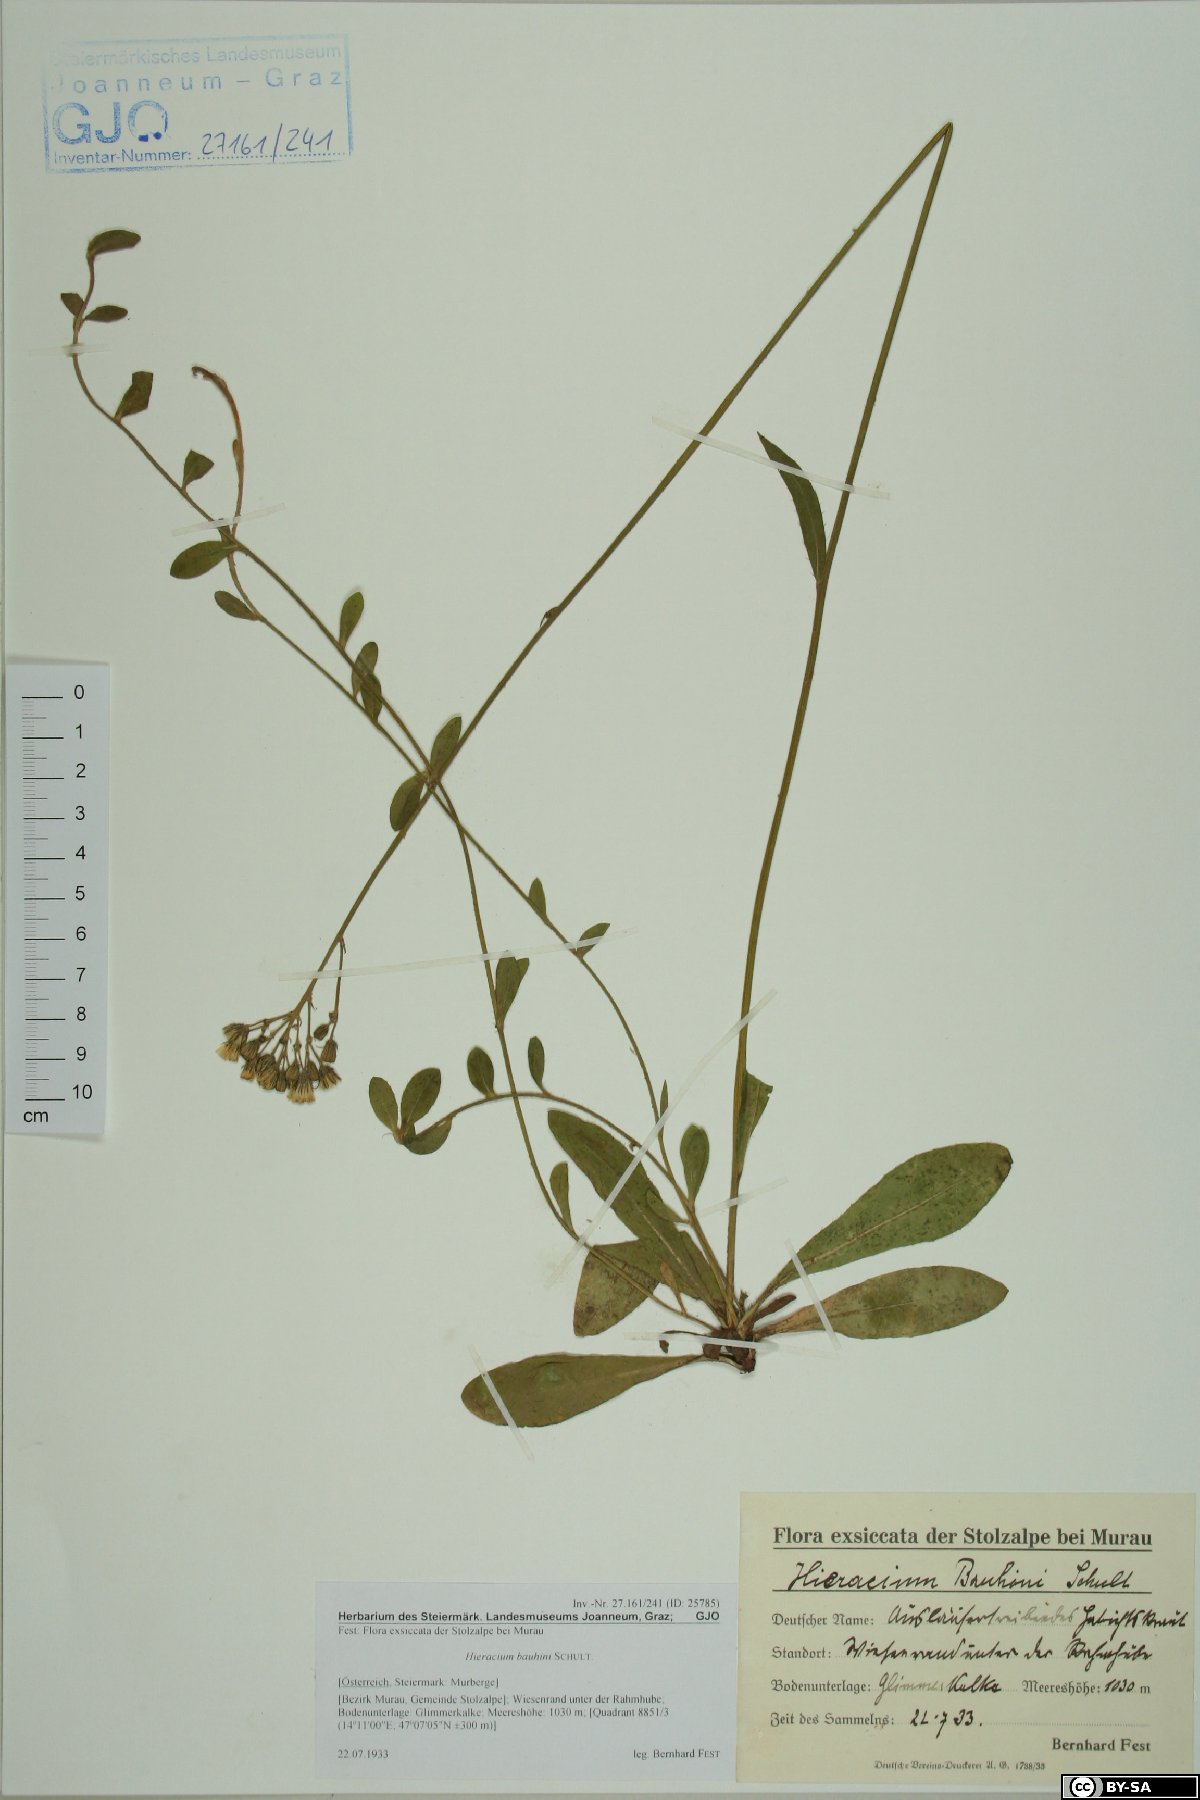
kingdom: Plantae
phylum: Tracheophyta
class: Magnoliopsida
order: Asterales
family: Asteraceae
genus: Pilosella
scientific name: Pilosella bauhini
